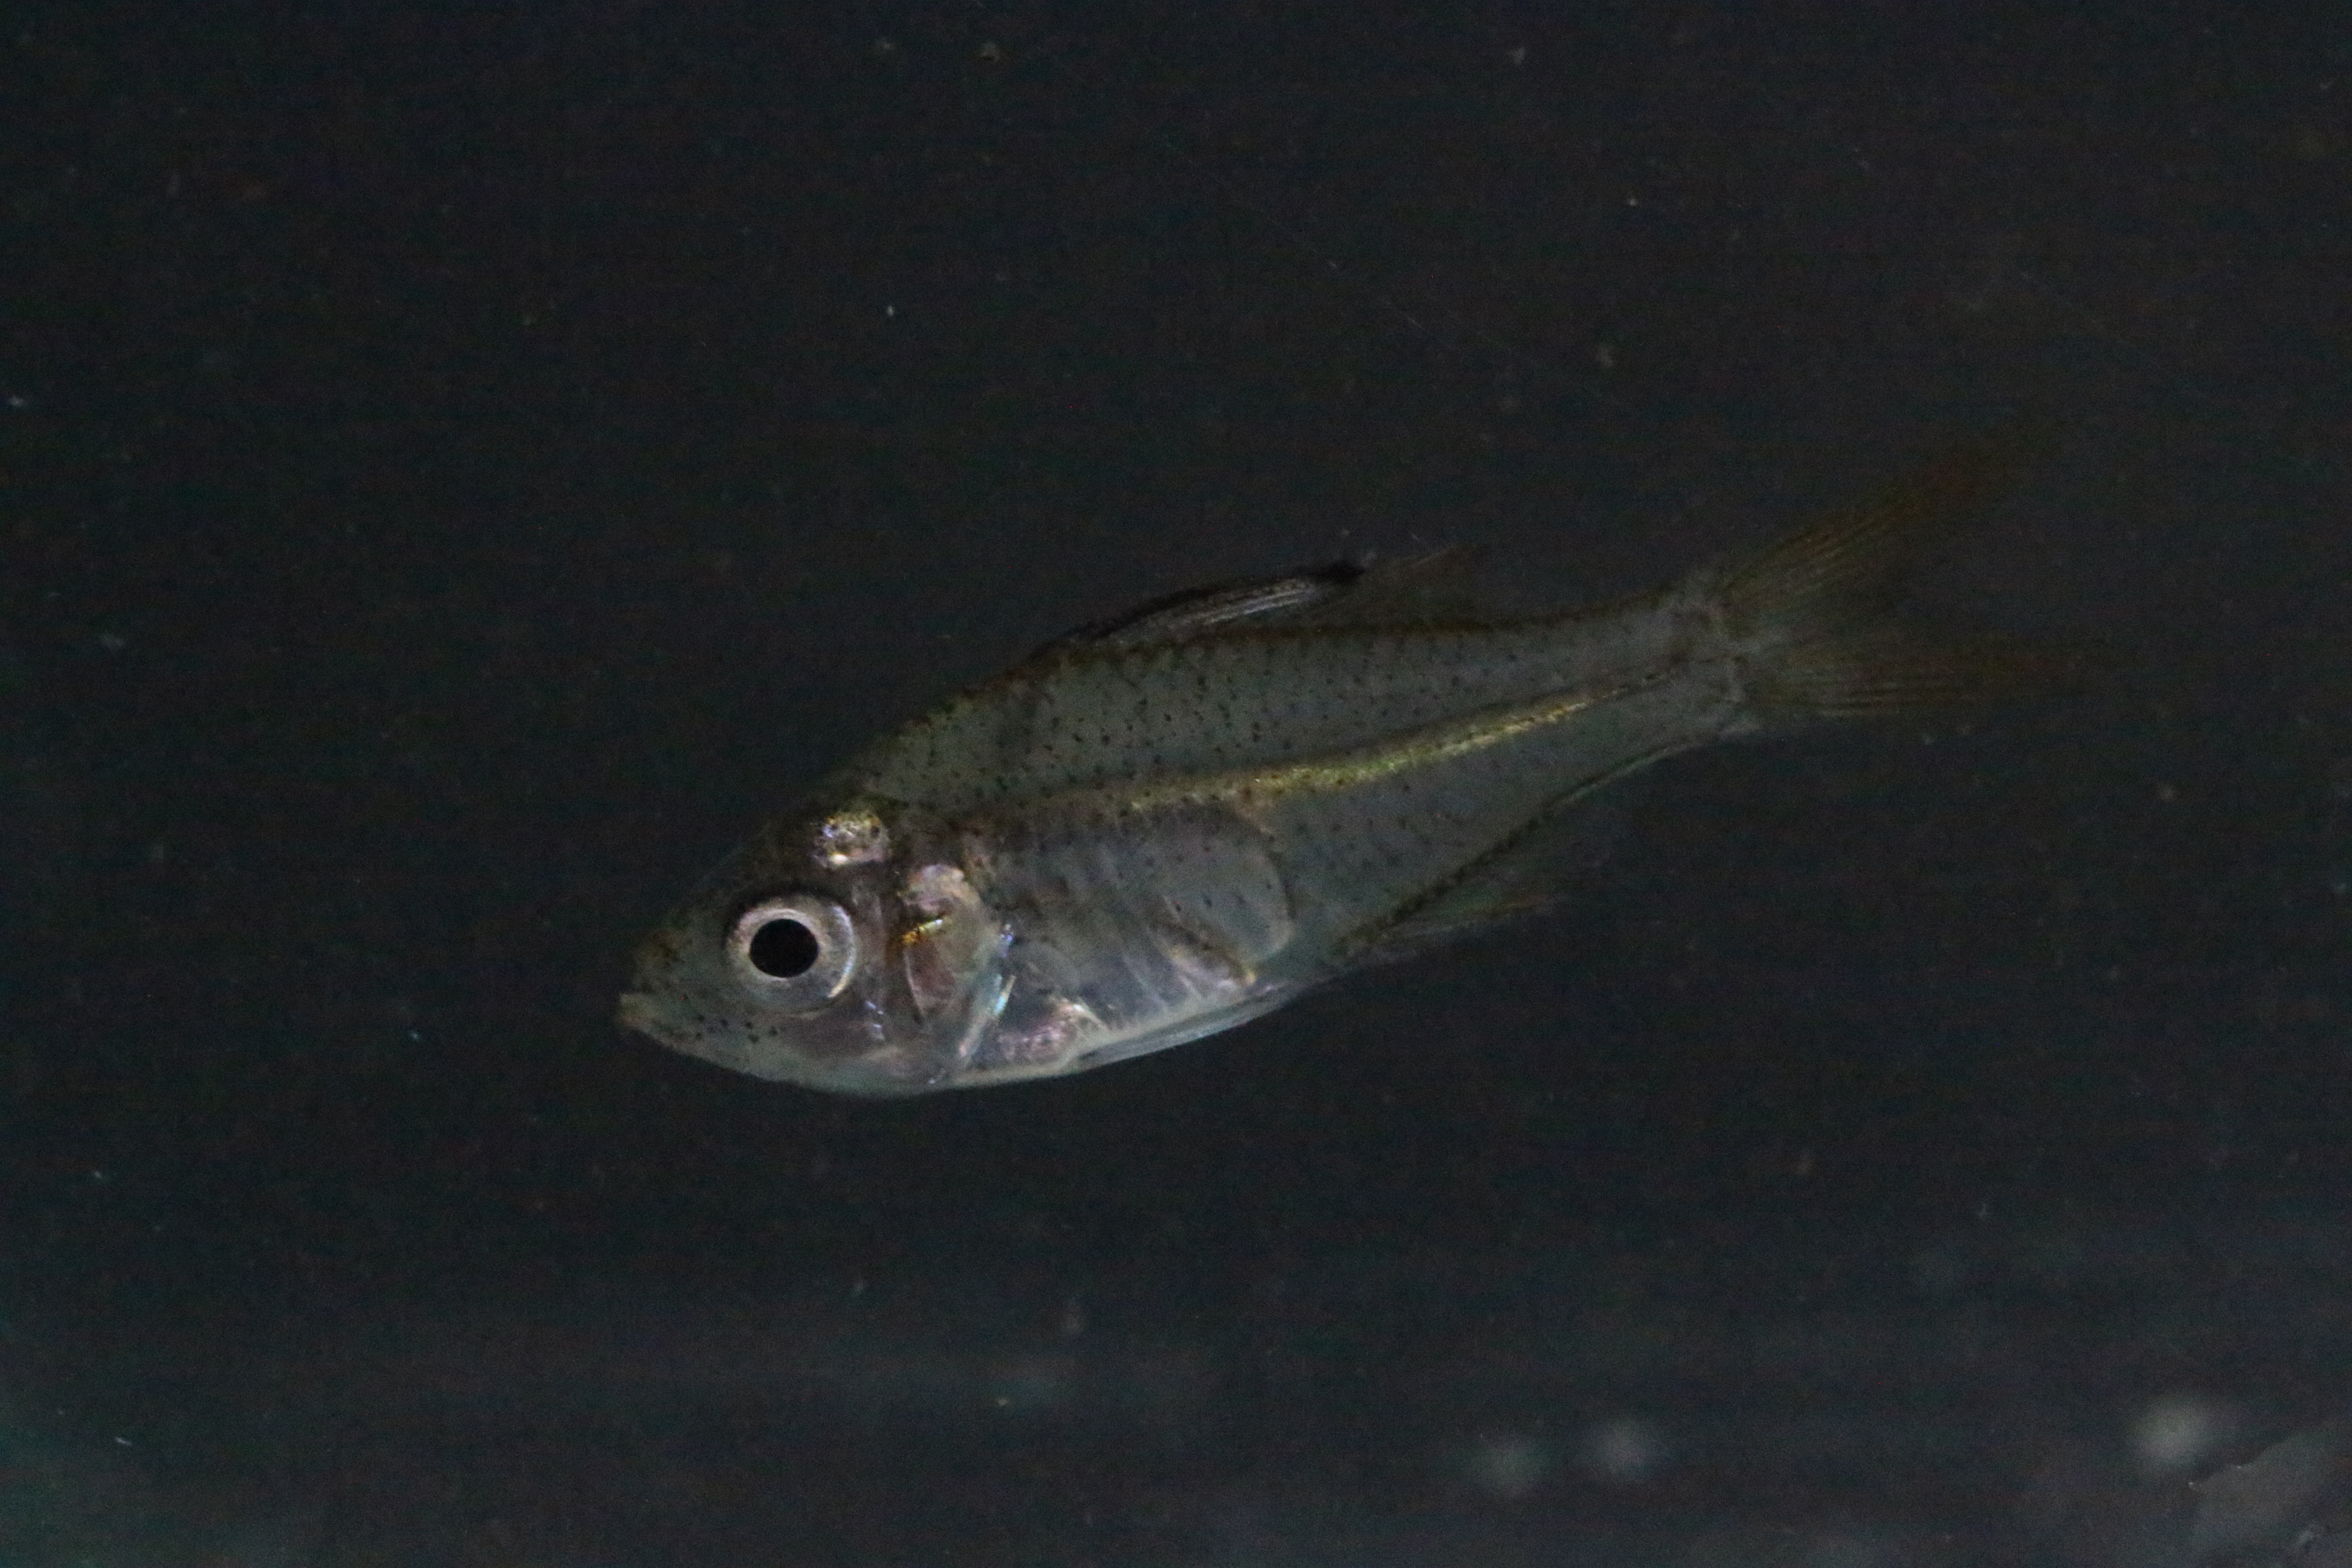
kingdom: Animalia
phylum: Chordata
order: Perciformes
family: Ambassidae
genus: Ambassis
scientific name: Ambassis natalensis
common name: Slender glassy
